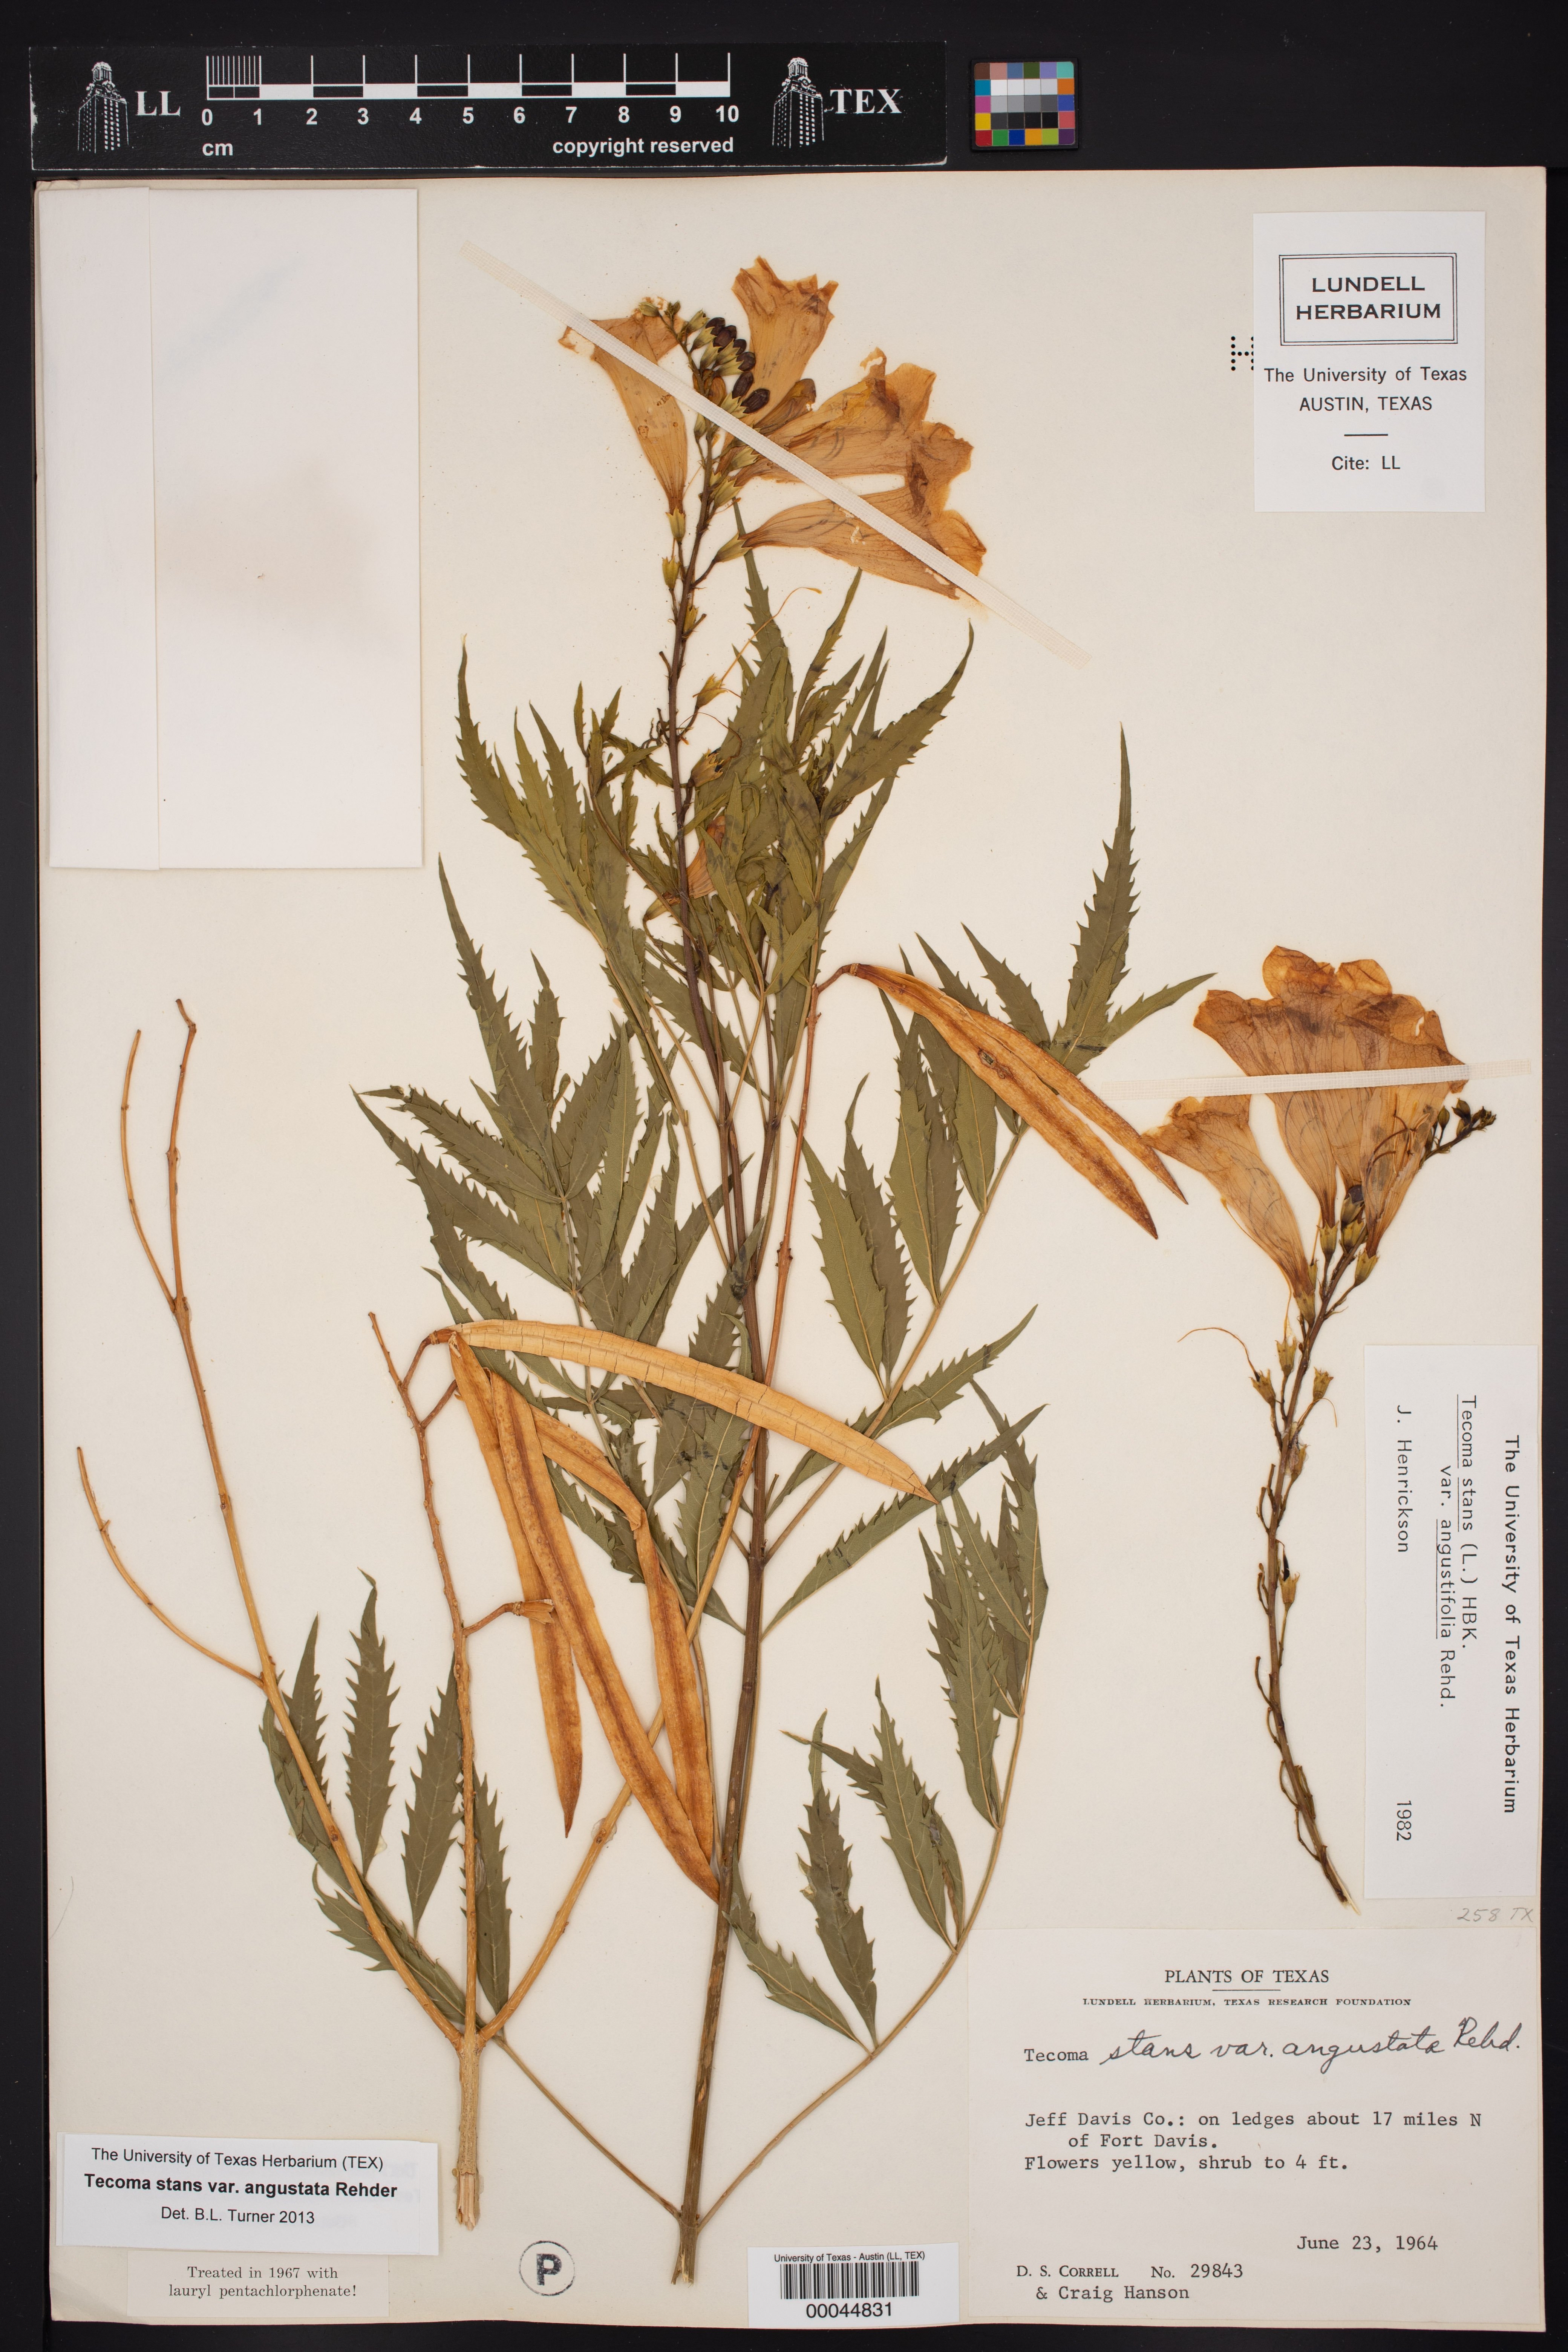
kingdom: Plantae
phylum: Tracheophyta
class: Magnoliopsida
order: Lamiales
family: Bignoniaceae
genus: Tecoma
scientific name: Tecoma stans
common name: Yellow trumpetbush
